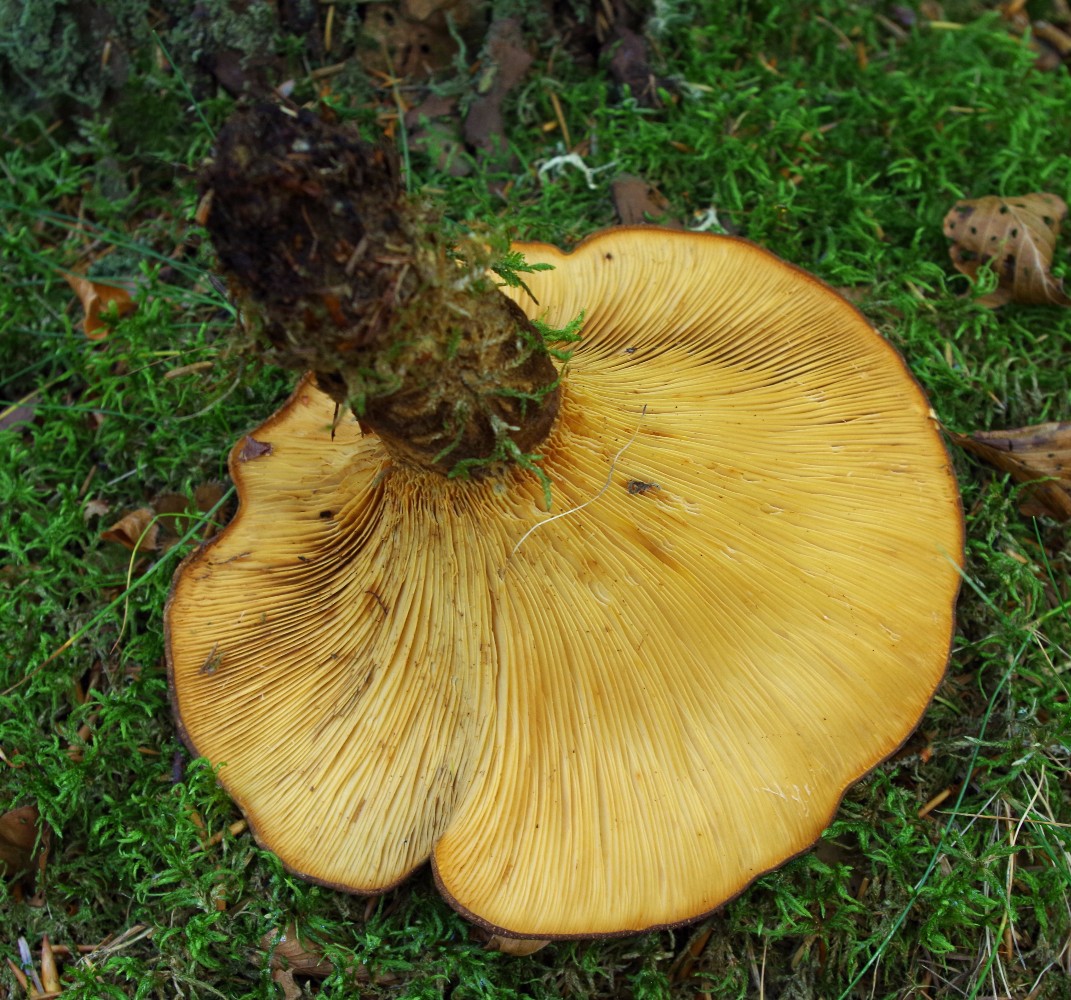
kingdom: Fungi
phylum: Basidiomycota
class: Agaricomycetes
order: Boletales
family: Tapinellaceae
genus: Tapinella
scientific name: Tapinella atrotomentosa
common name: sortfiltet viftesvamp
